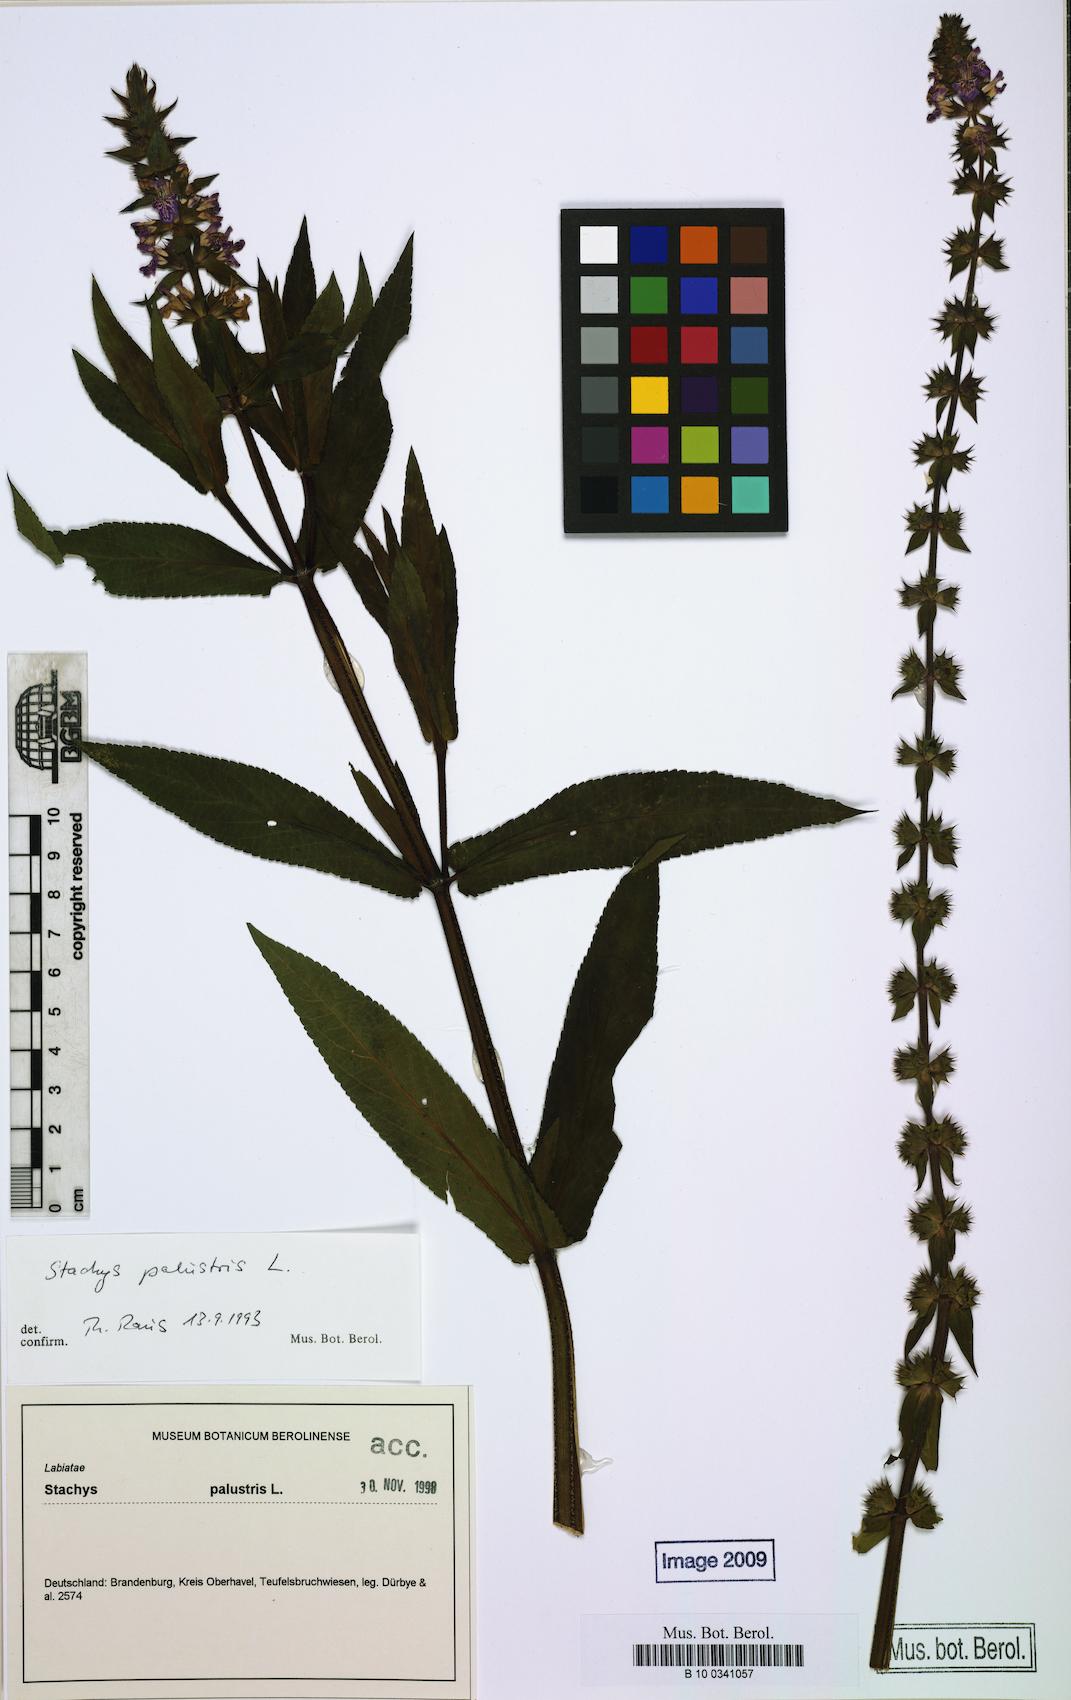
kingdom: Plantae
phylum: Tracheophyta
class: Magnoliopsida
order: Lamiales
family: Lamiaceae
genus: Stachys
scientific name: Stachys palustris
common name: Marsh woundwort
